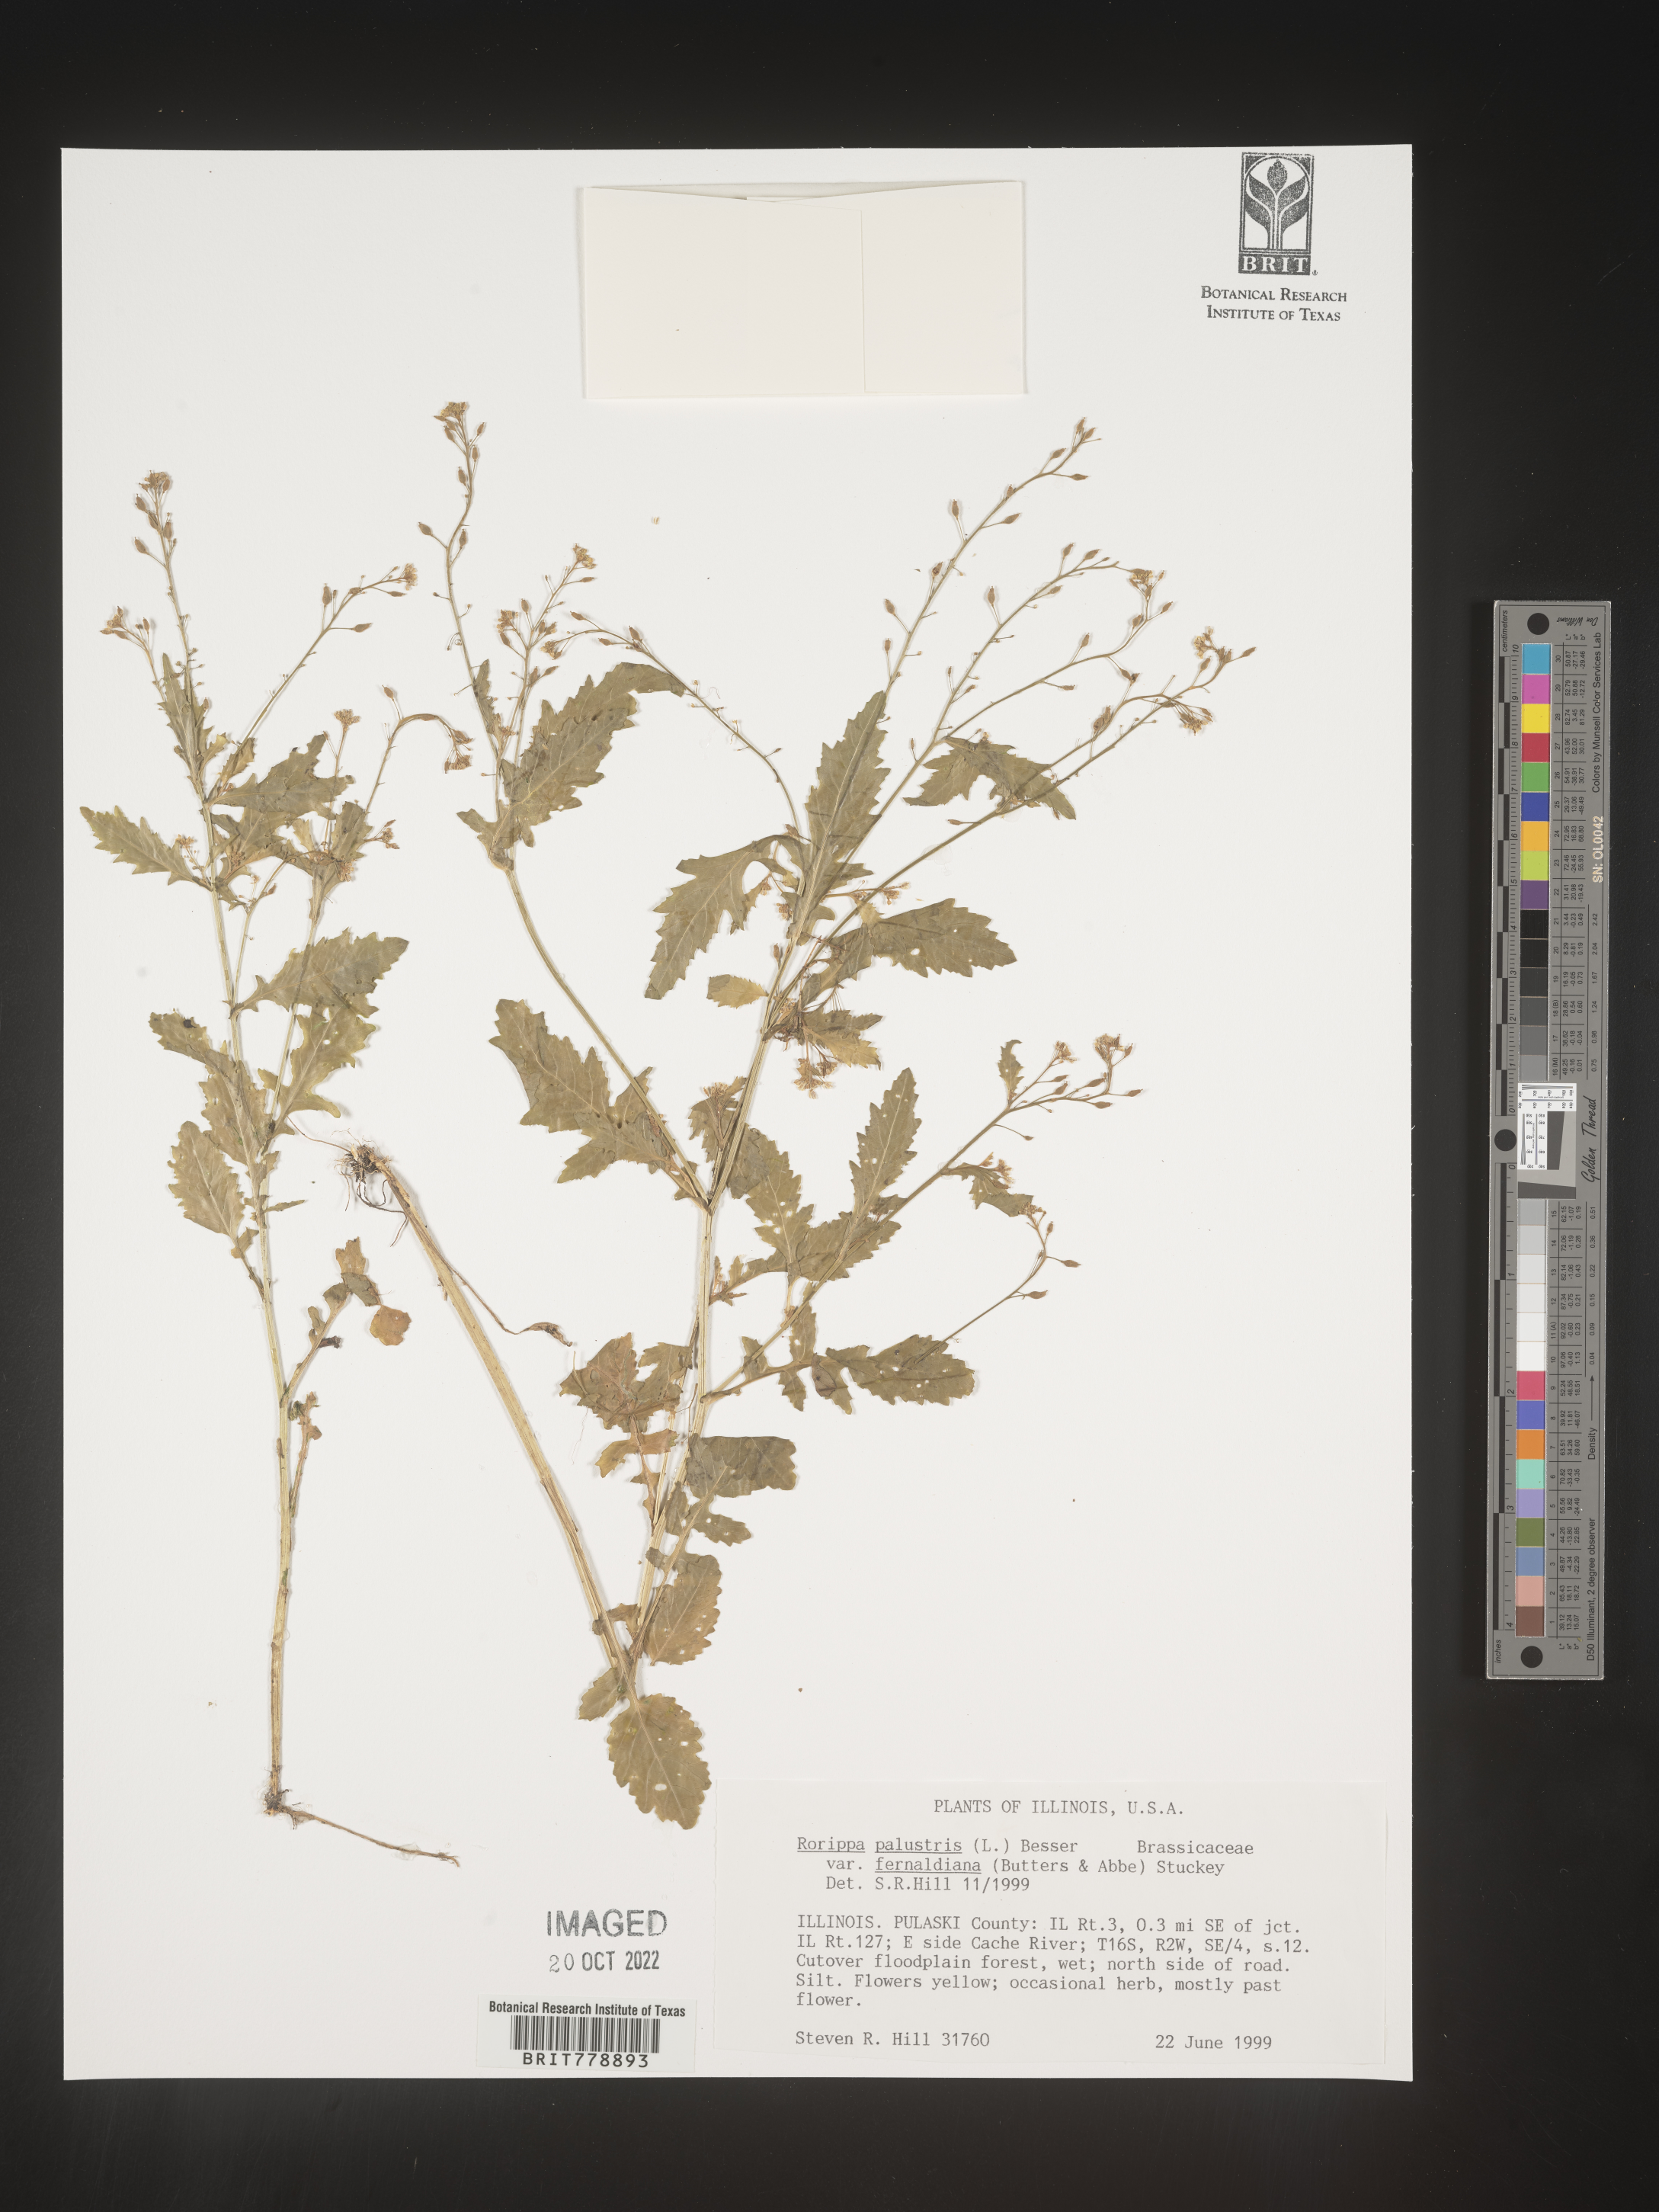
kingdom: Plantae
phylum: Tracheophyta
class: Magnoliopsida
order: Brassicales
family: Brassicaceae
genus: Rorippa
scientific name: Rorippa palustris
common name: Marsh yellow-cress
